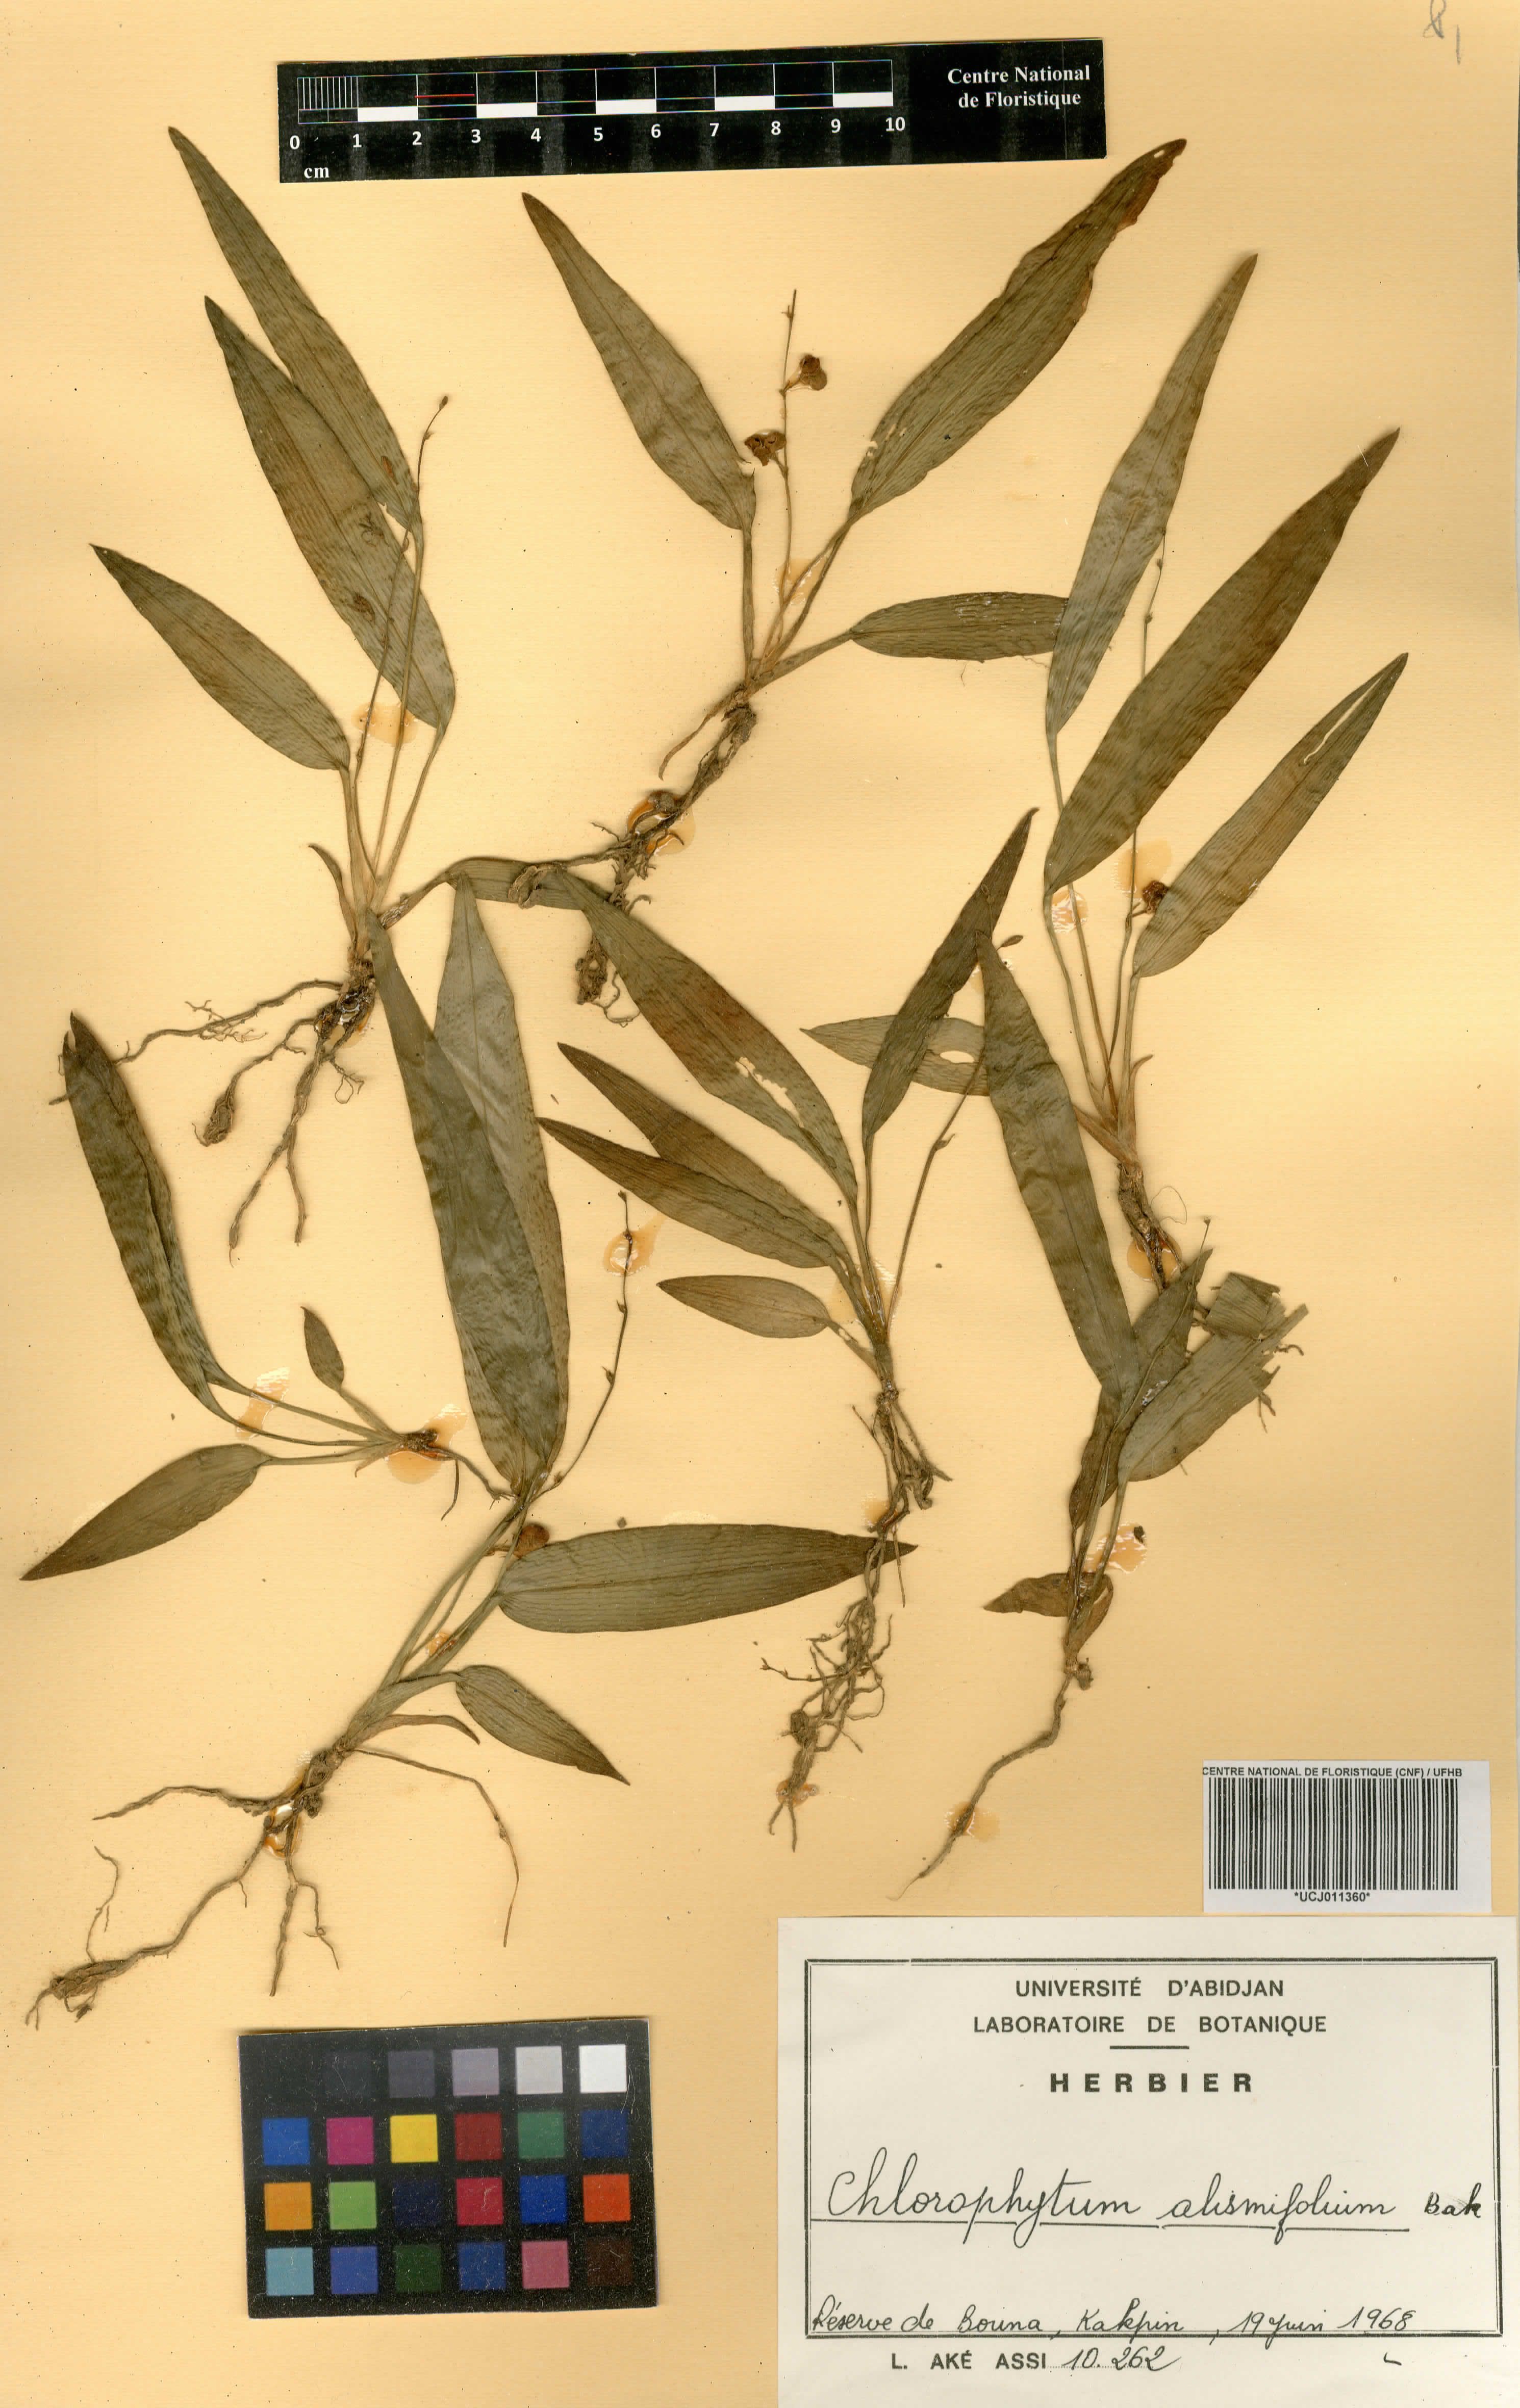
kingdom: Plantae
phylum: Tracheophyta
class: Liliopsida
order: Asparagales
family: Asparagaceae
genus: Chlorophytum
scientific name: Chlorophytum alismifolium
